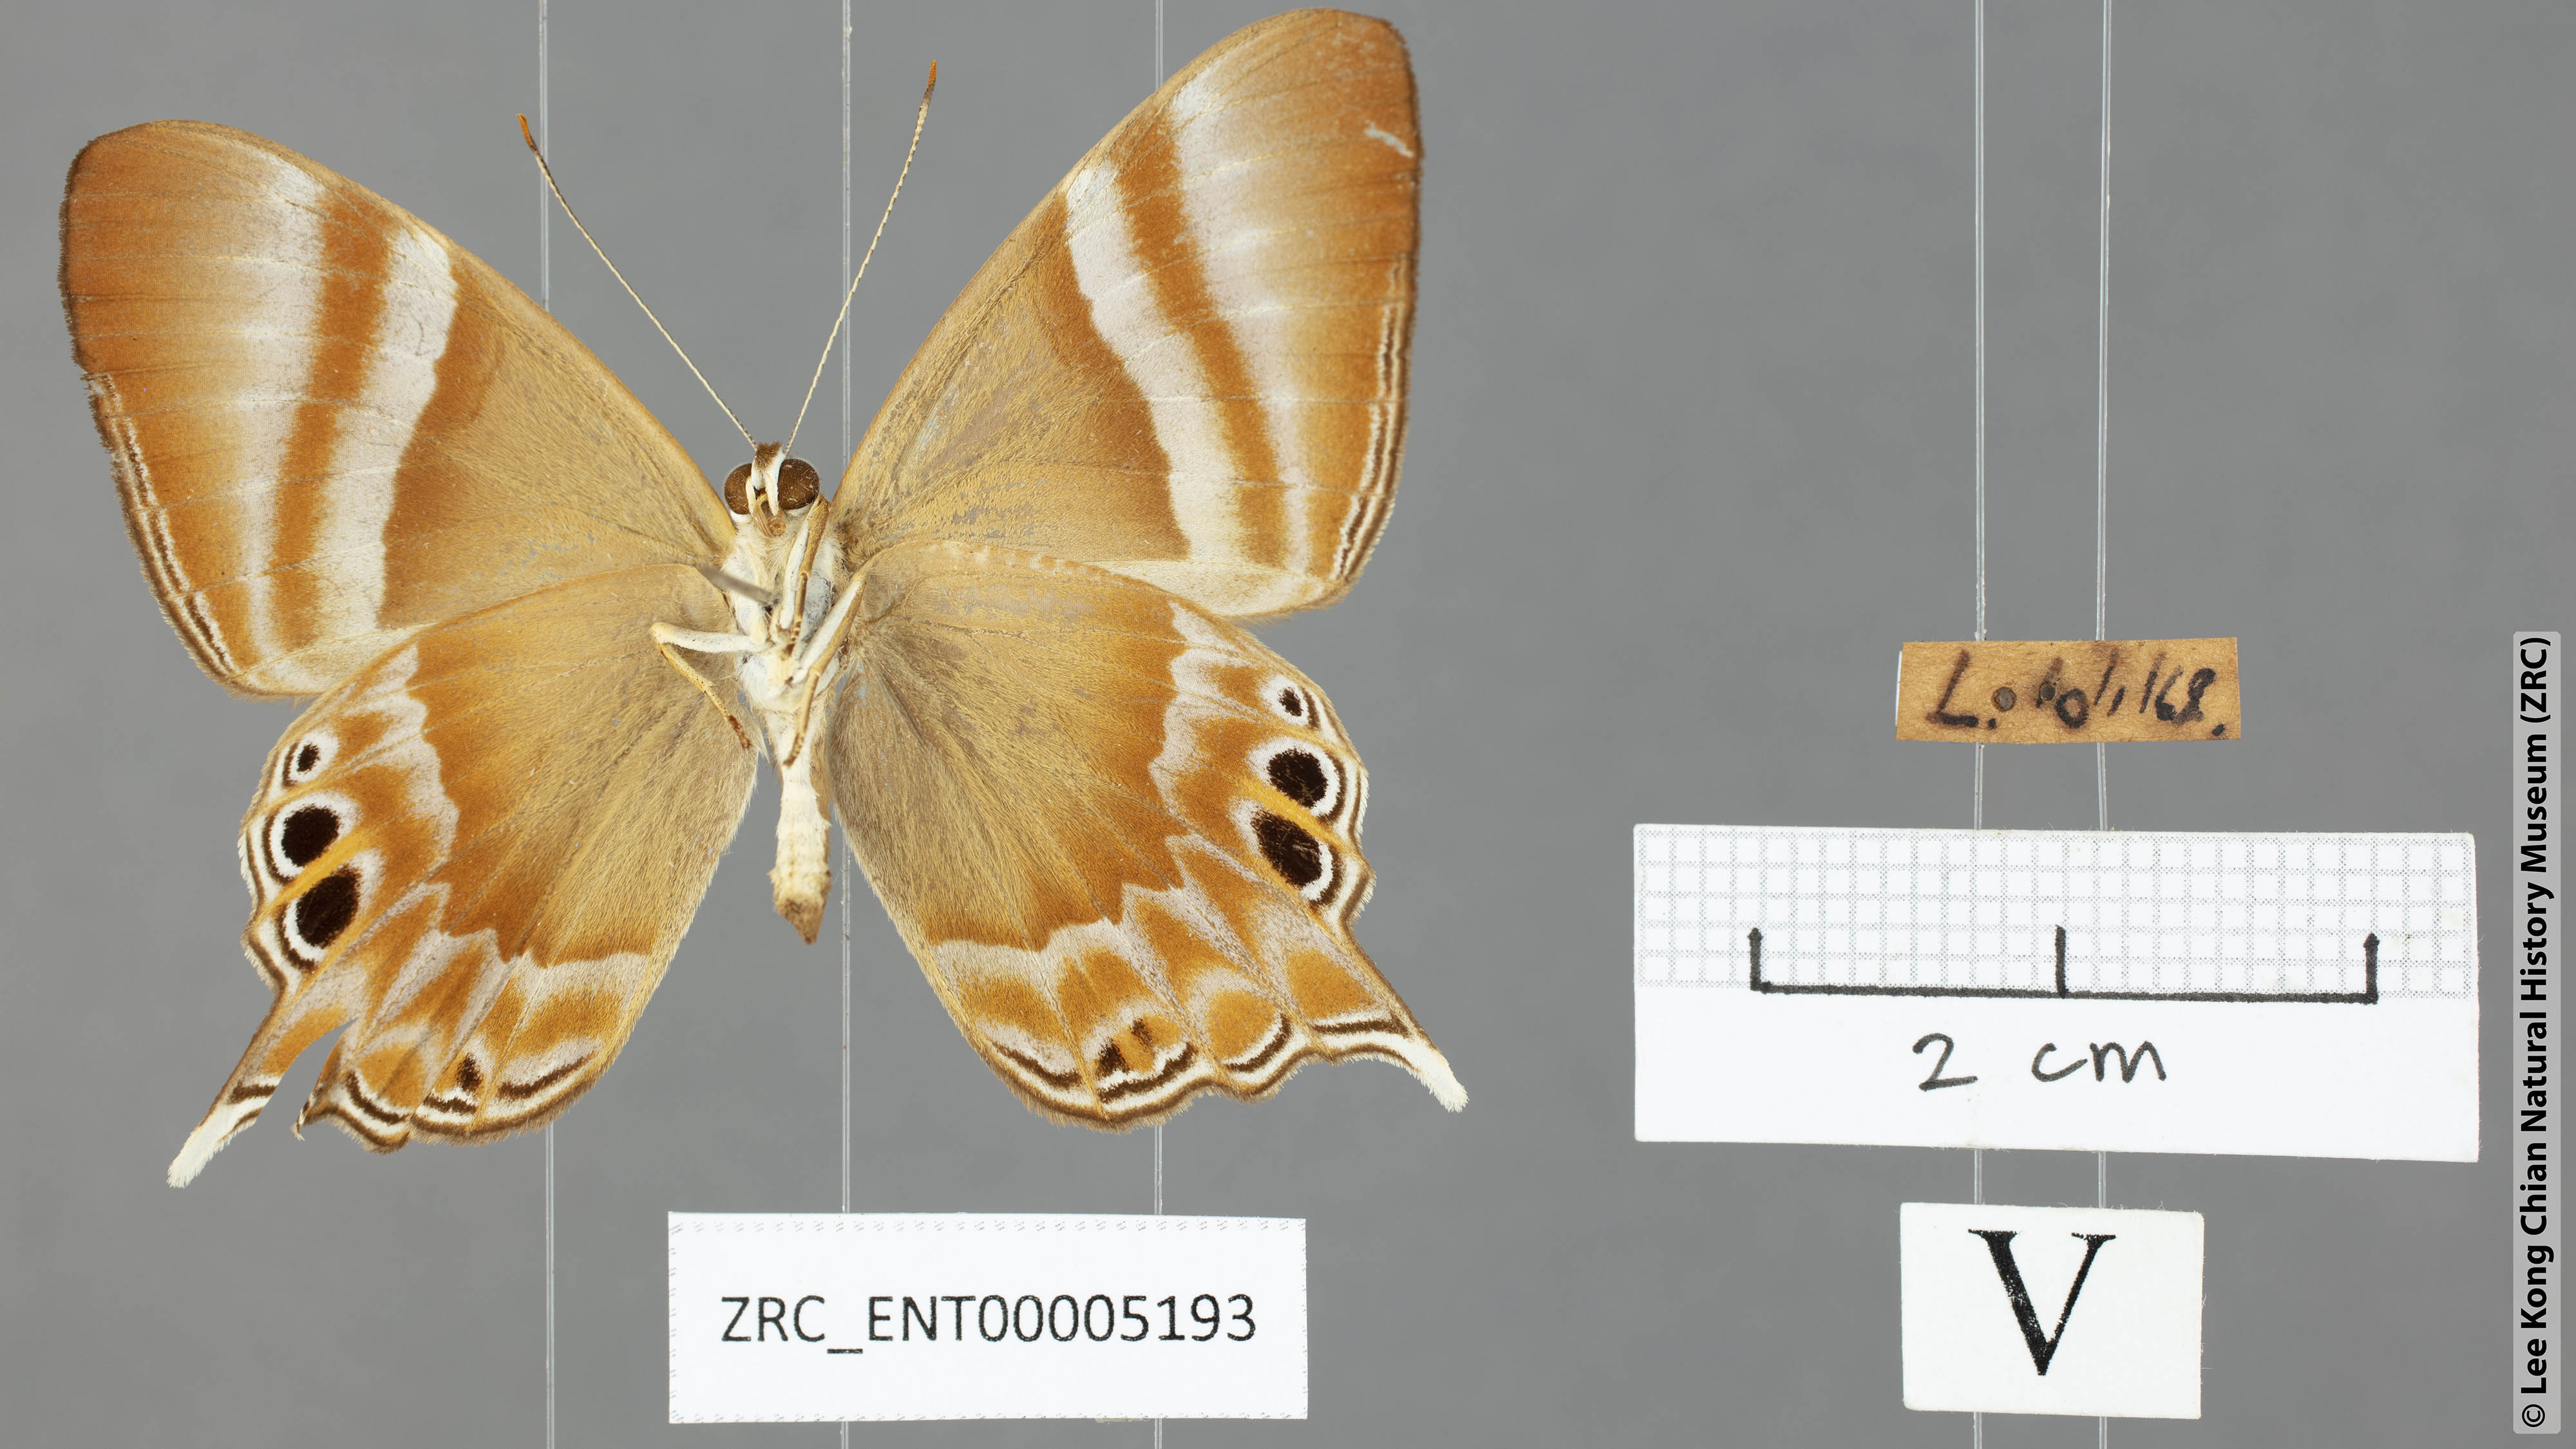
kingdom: Animalia
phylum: Arthropoda
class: Insecta
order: Lepidoptera
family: Riodinidae
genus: Archigenes
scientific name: Archigenes savitri
